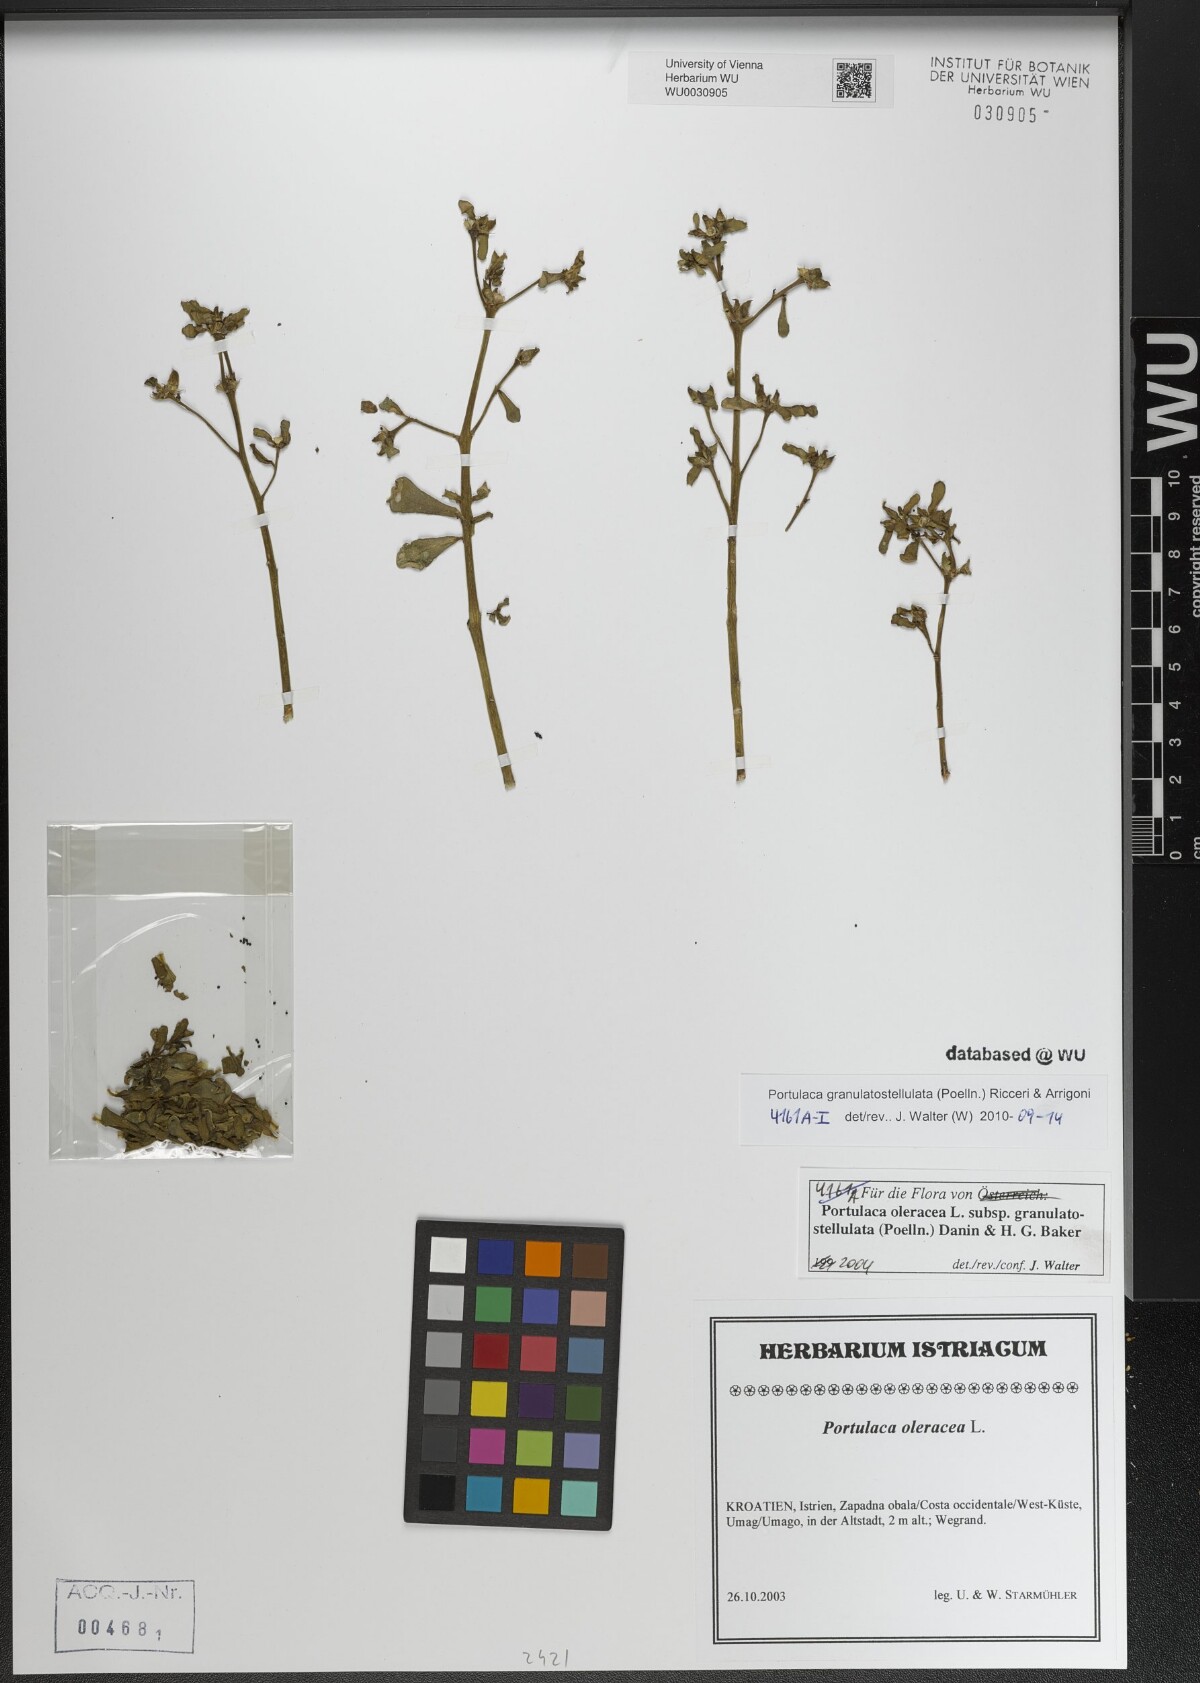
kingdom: Plantae
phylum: Tracheophyta
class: Magnoliopsida
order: Caryophyllales
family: Portulacaceae
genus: Portulaca
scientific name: Portulaca granulatostellulata
